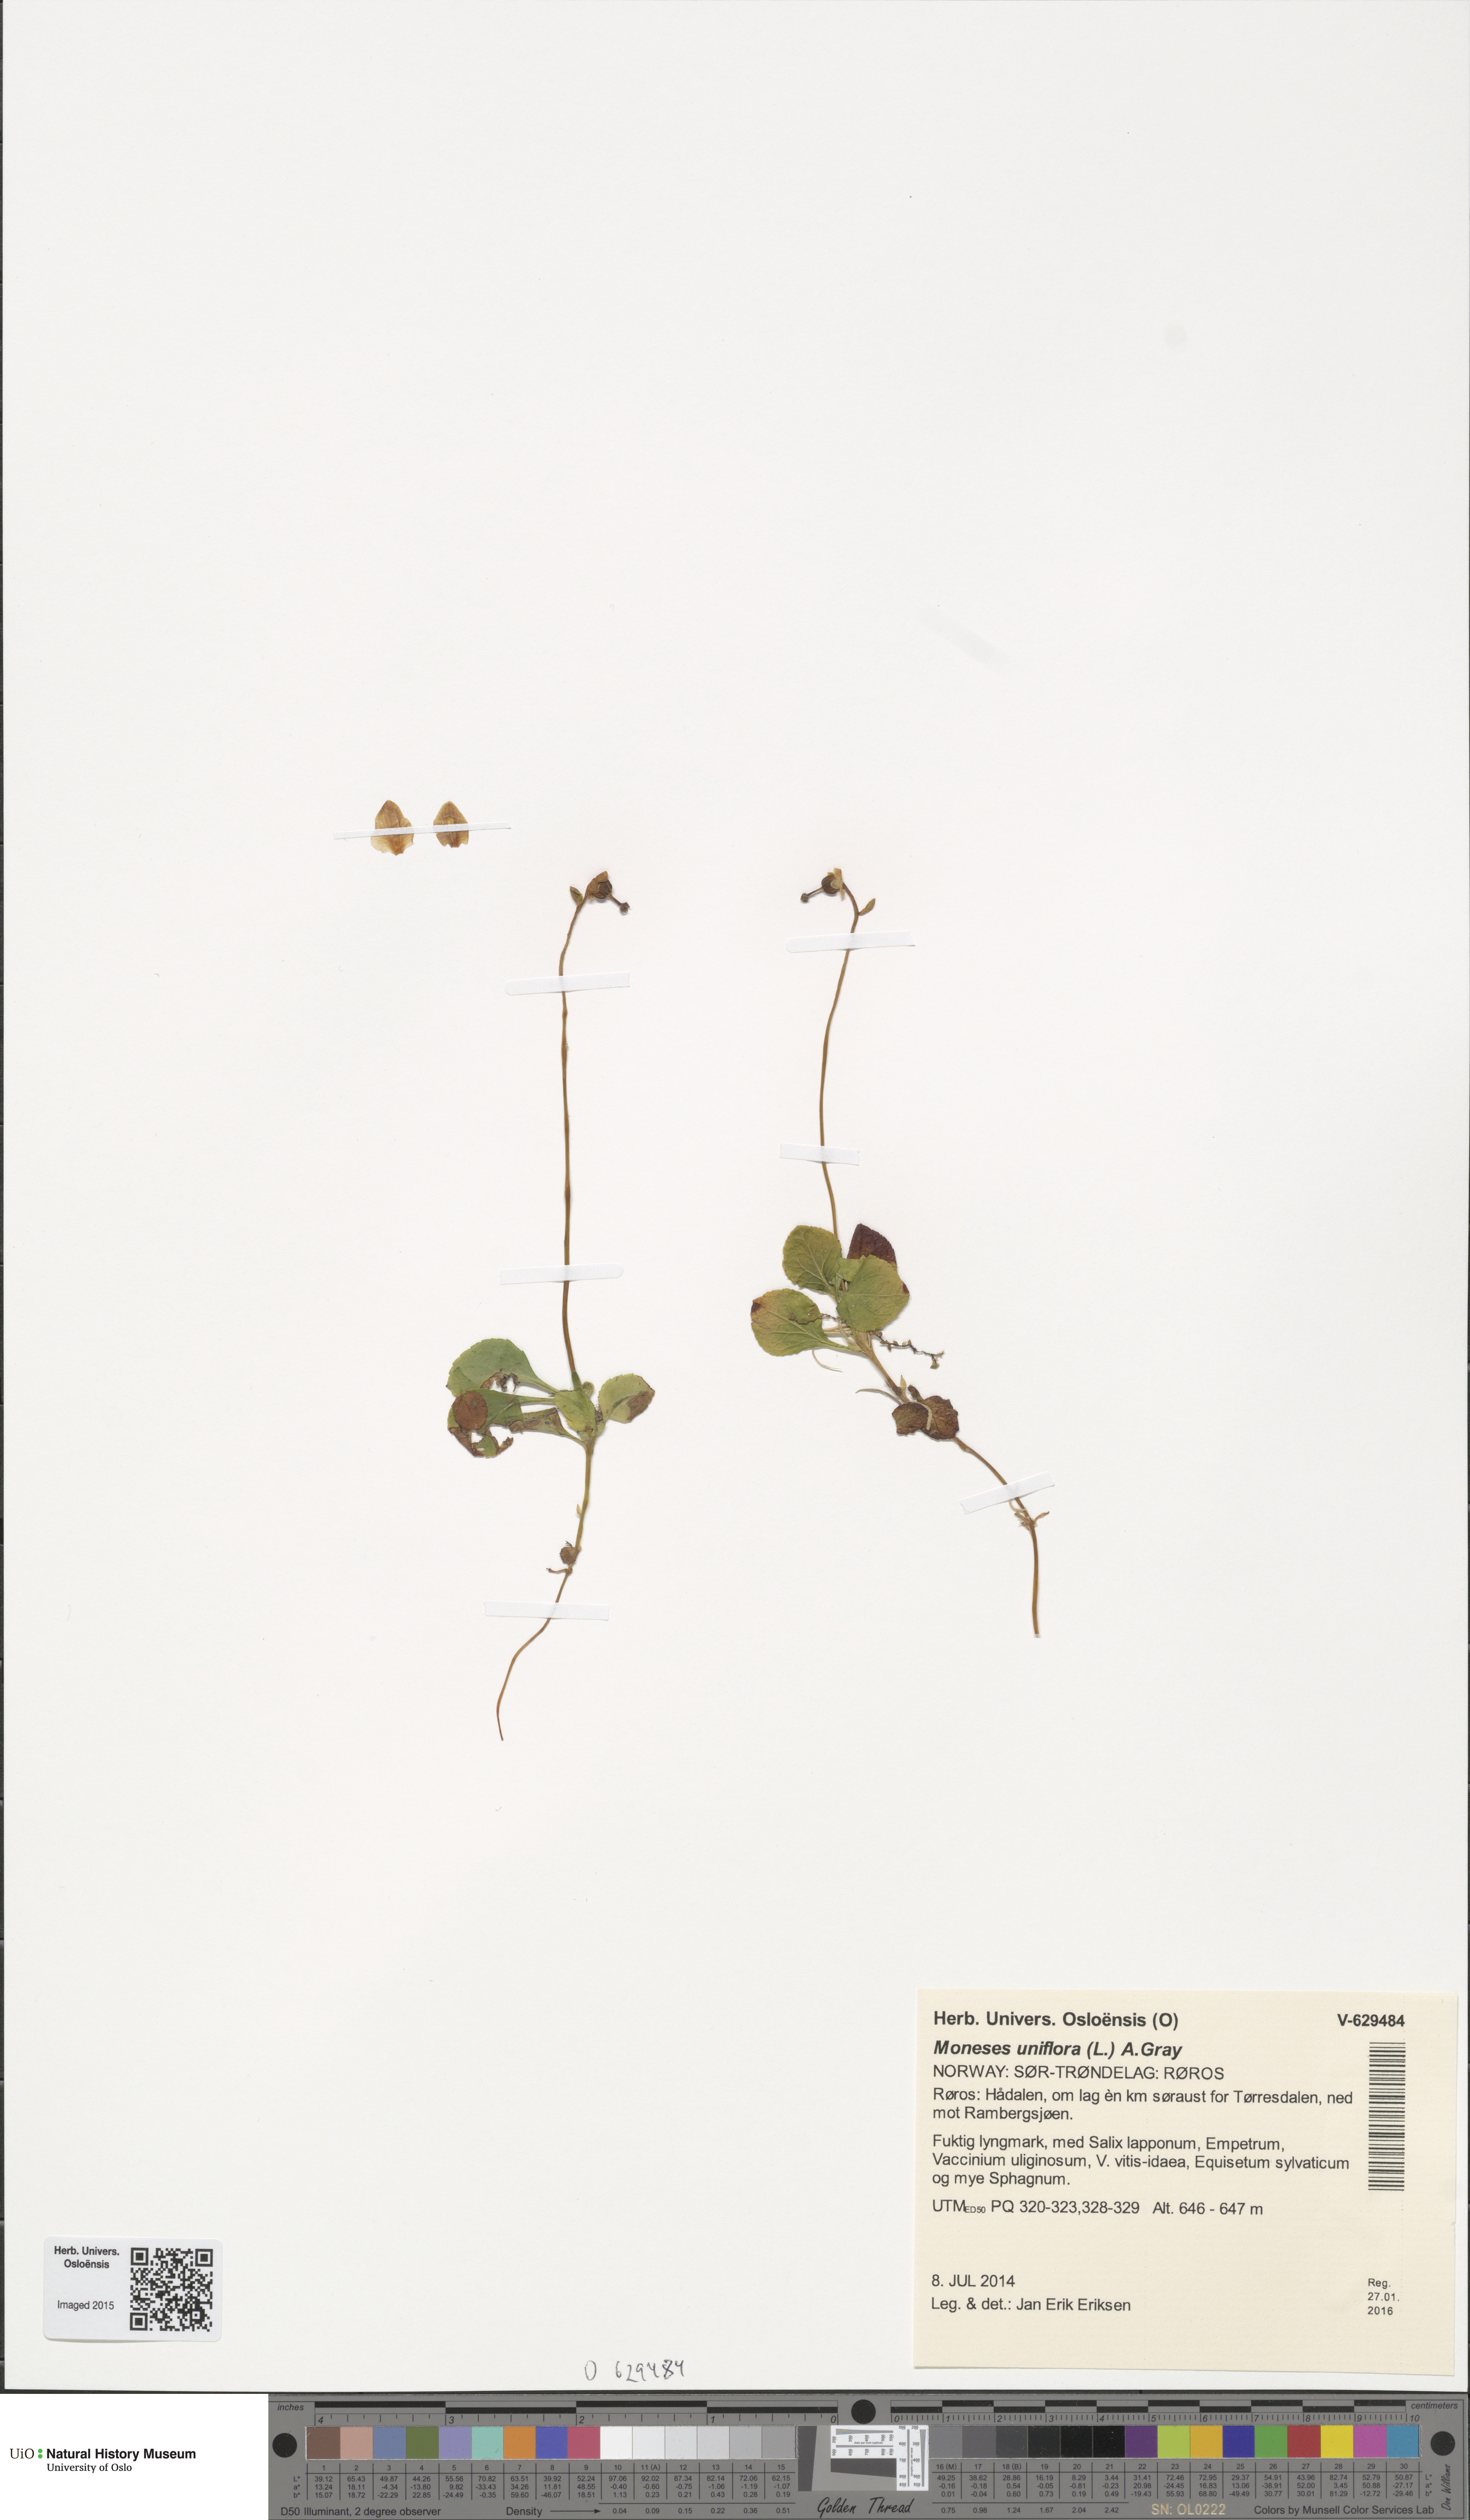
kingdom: Plantae
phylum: Tracheophyta
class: Magnoliopsida
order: Ericales
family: Ericaceae
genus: Moneses
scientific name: Moneses uniflora
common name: One-flowered wintergreen
